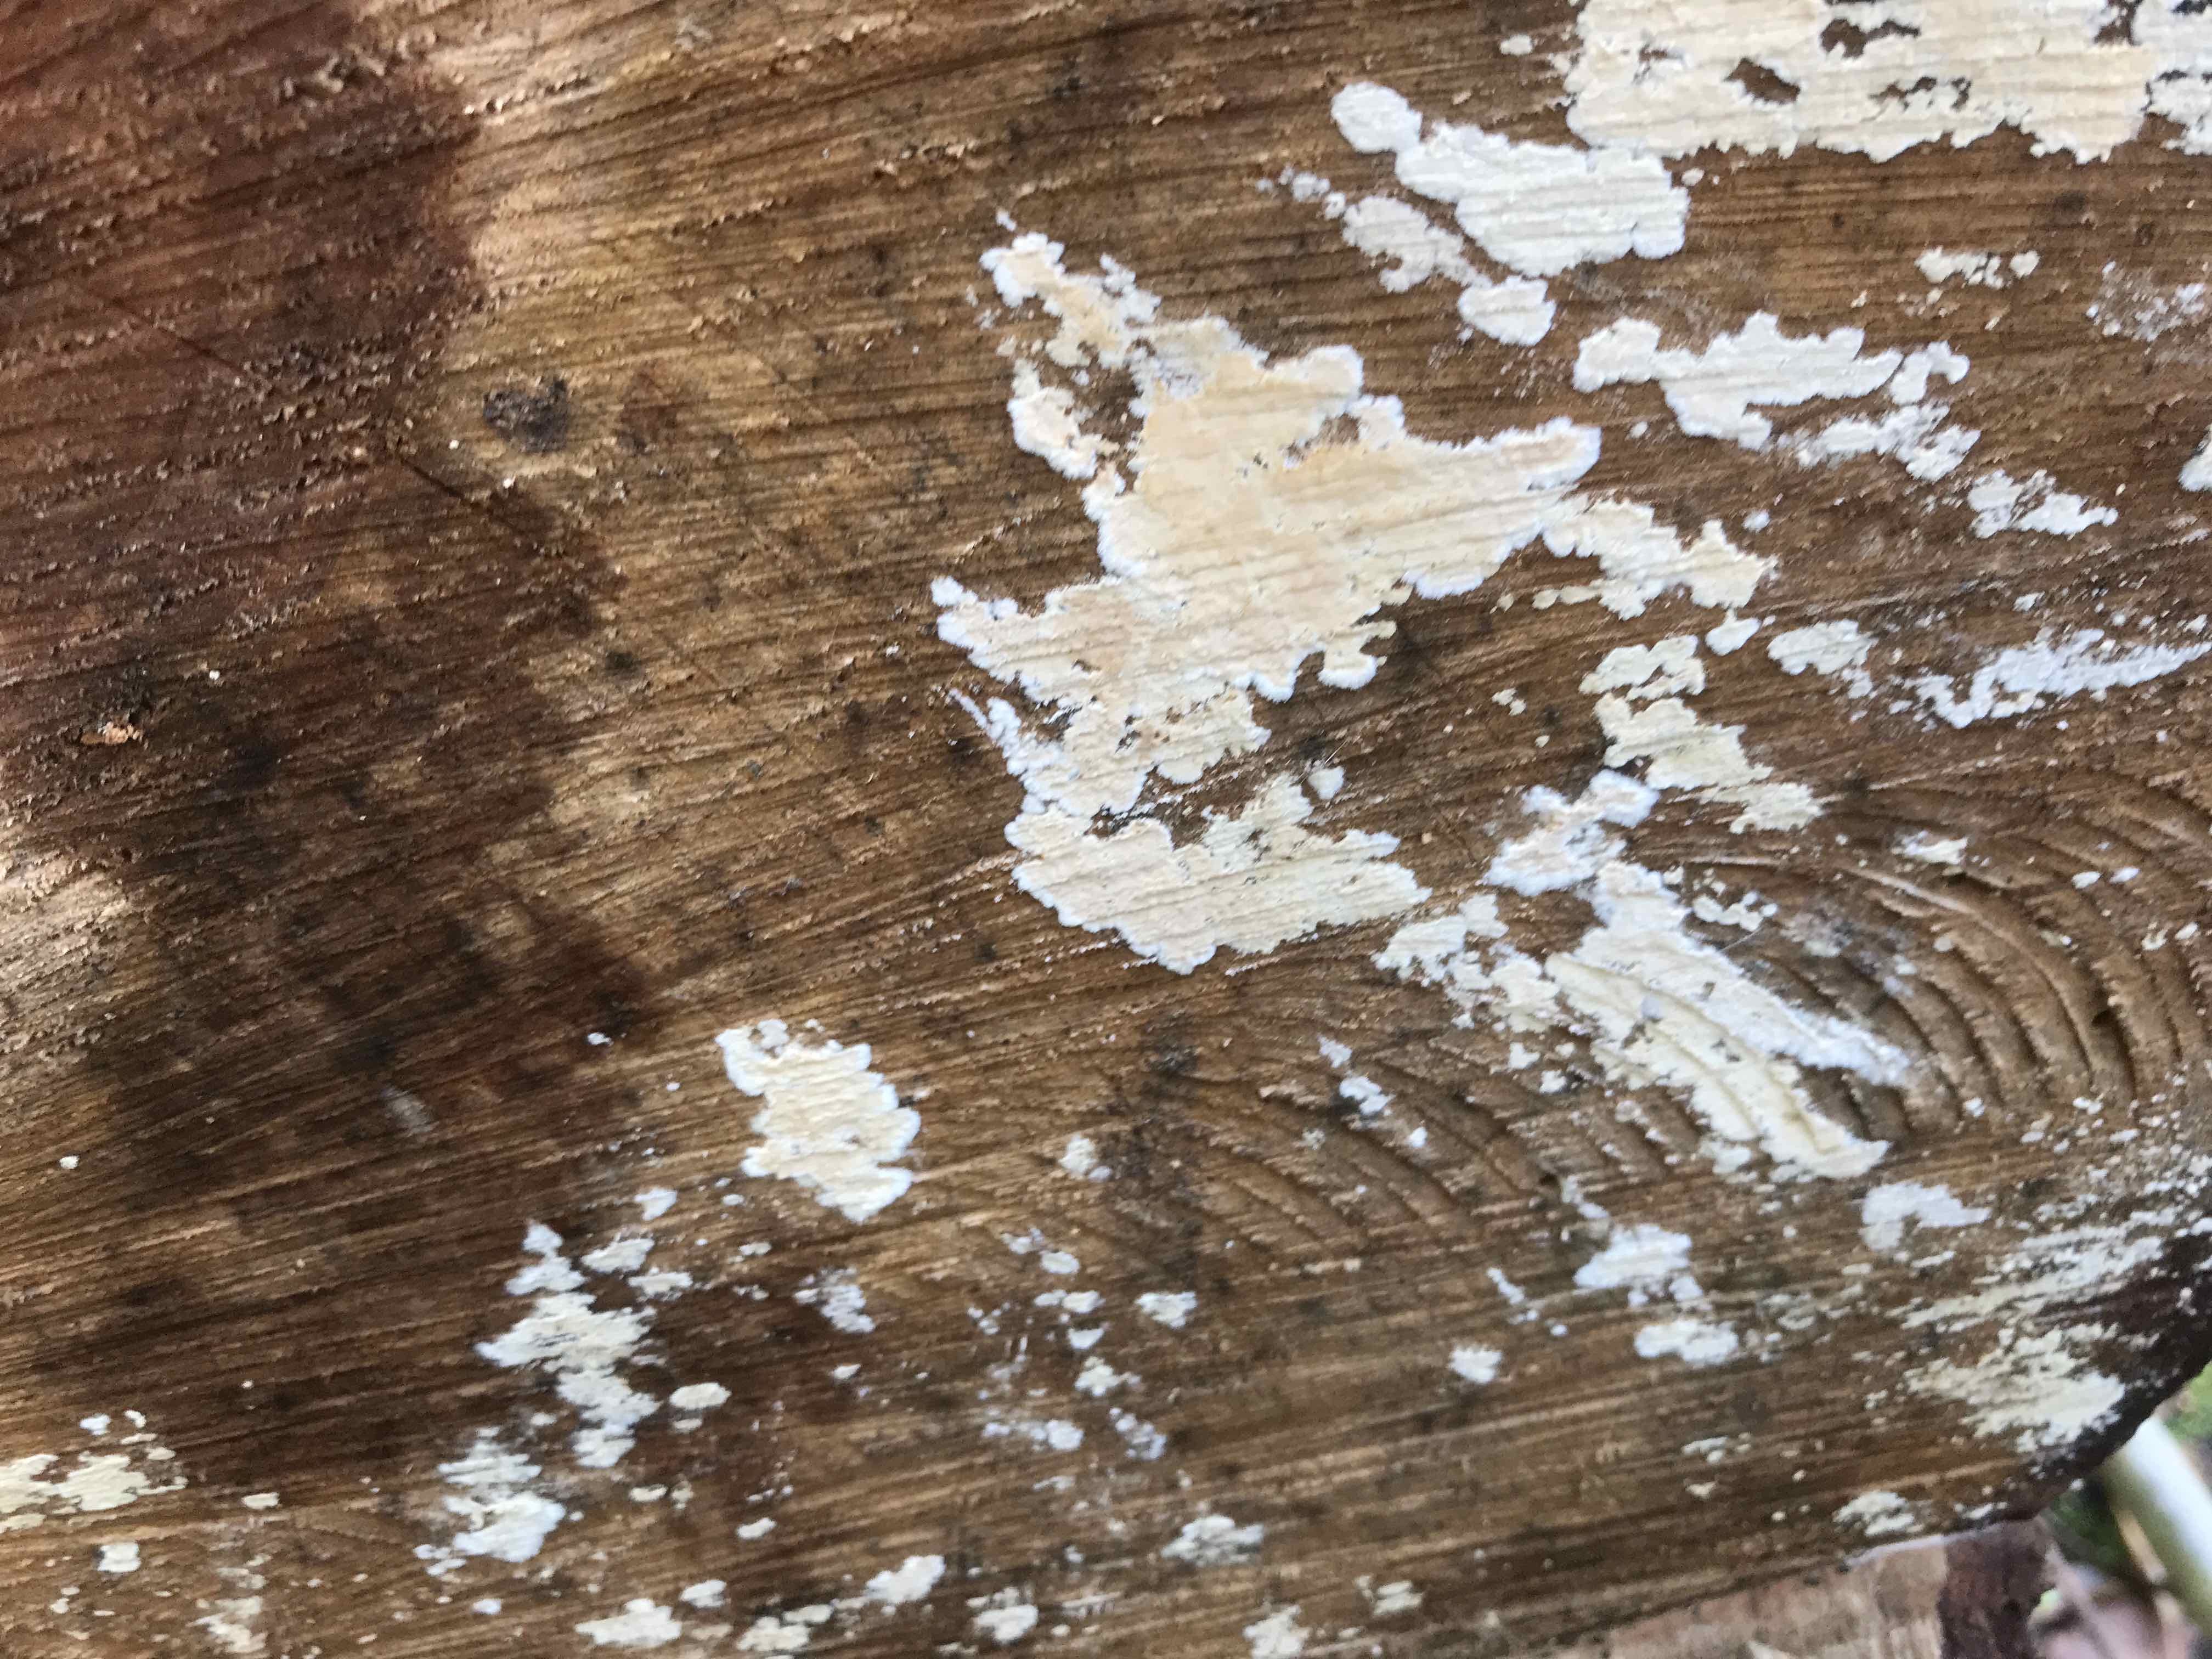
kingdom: Fungi
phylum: Basidiomycota
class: Agaricomycetes
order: Agaricales
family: Physalacriaceae
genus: Cylindrobasidium
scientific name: Cylindrobasidium evolvens
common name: sprækkehinde
